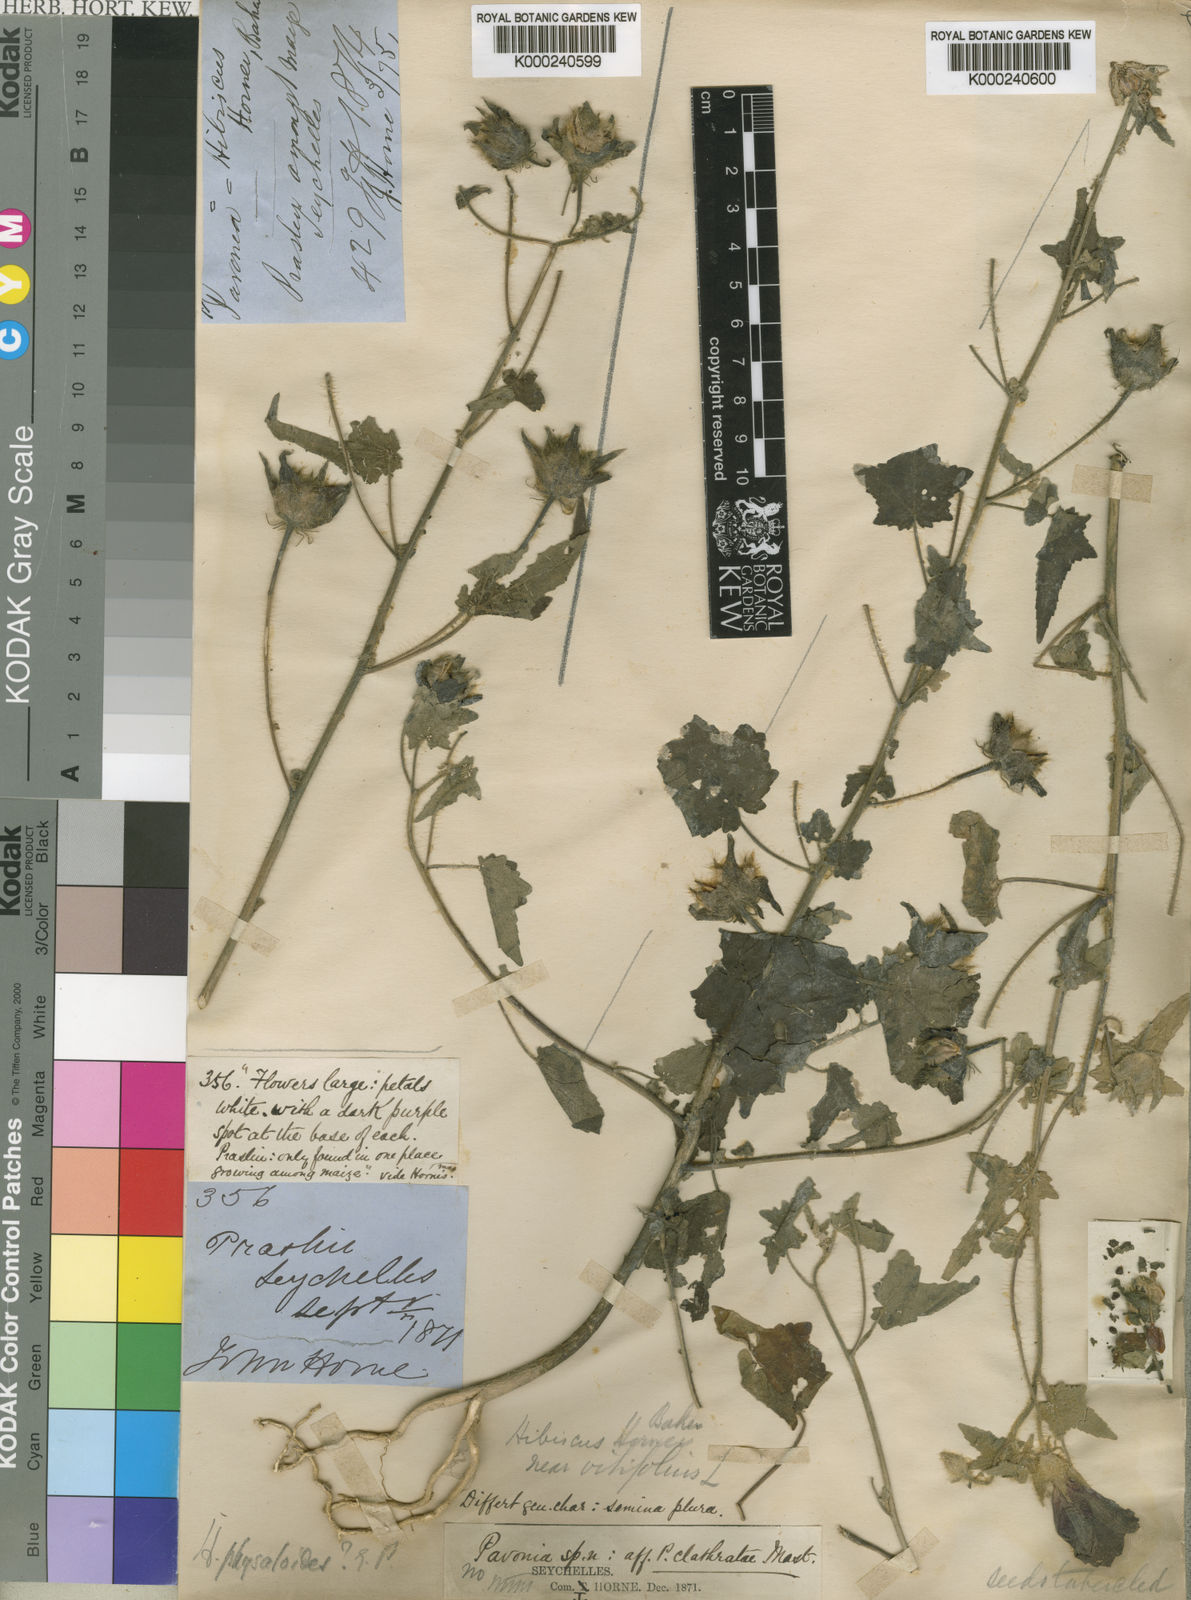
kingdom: Plantae
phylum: Tracheophyta
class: Magnoliopsida
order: Malvales
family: Malvaceae
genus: Hibiscus
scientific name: Hibiscus physaloides
